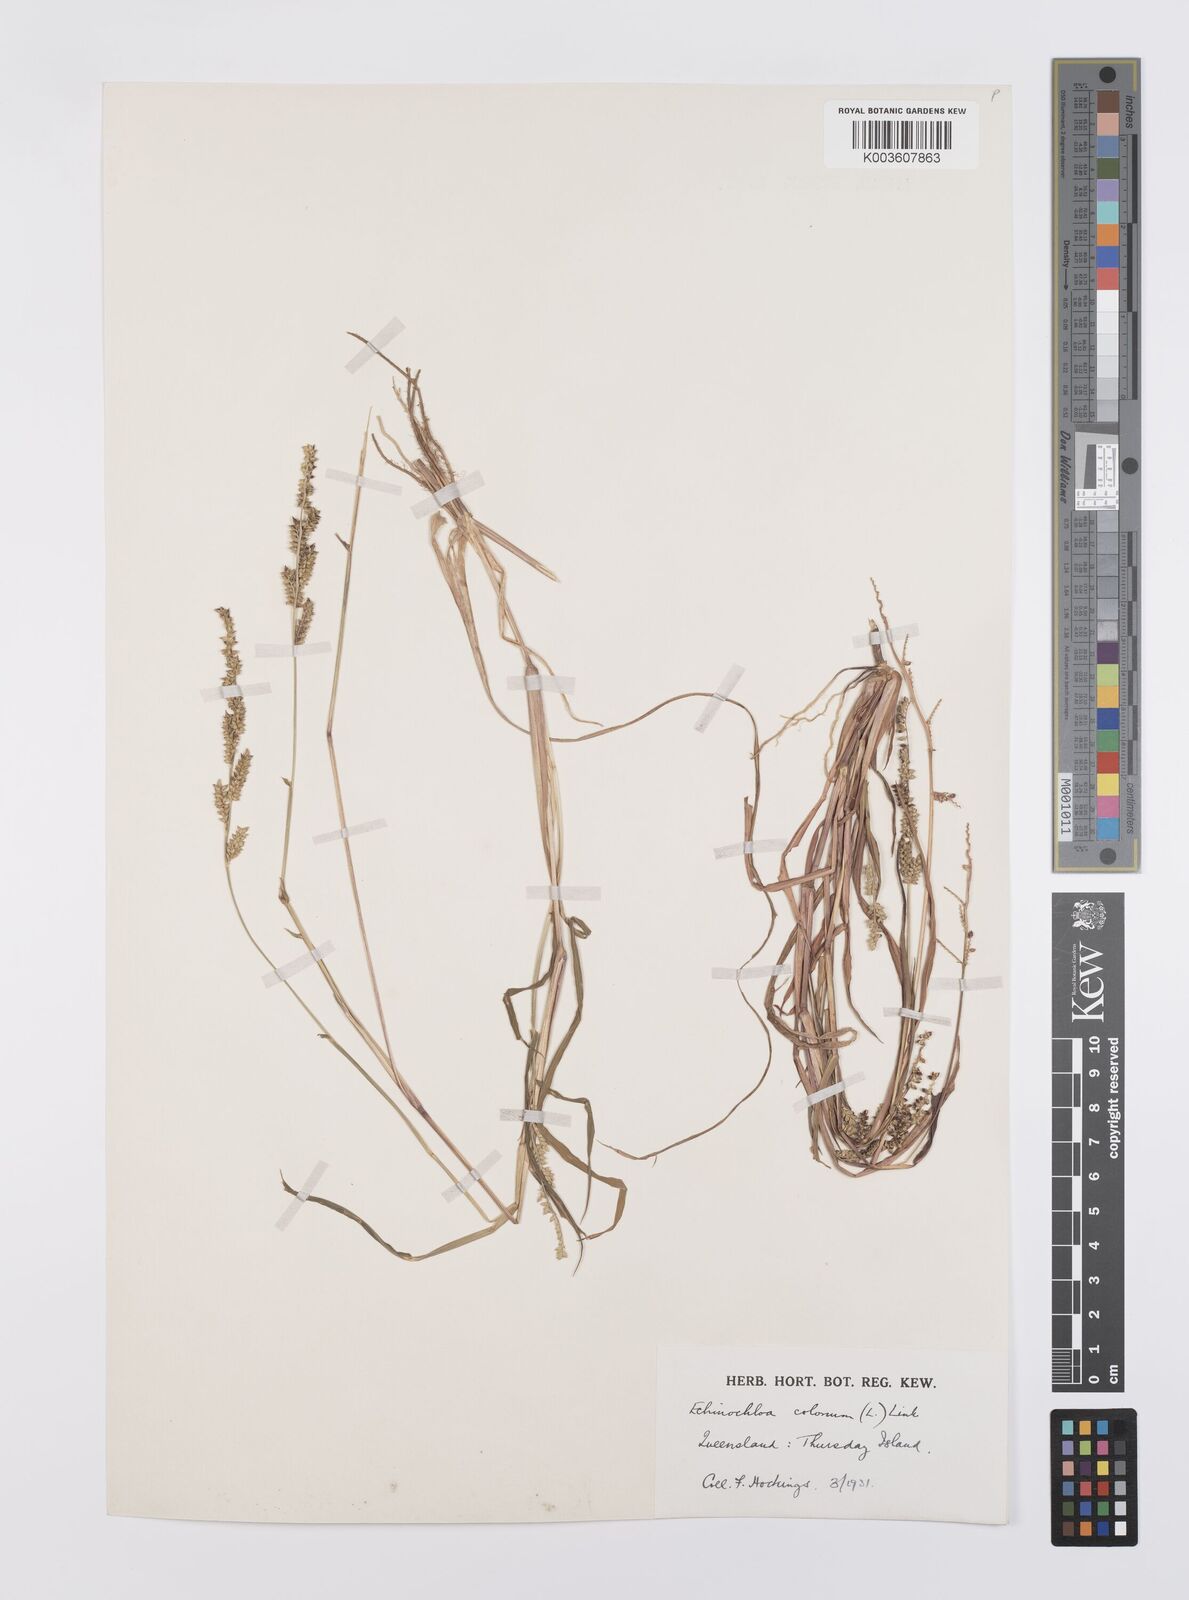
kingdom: Plantae
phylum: Tracheophyta
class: Liliopsida
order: Poales
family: Poaceae
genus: Echinochloa
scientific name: Echinochloa colonum
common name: Jungle rice
